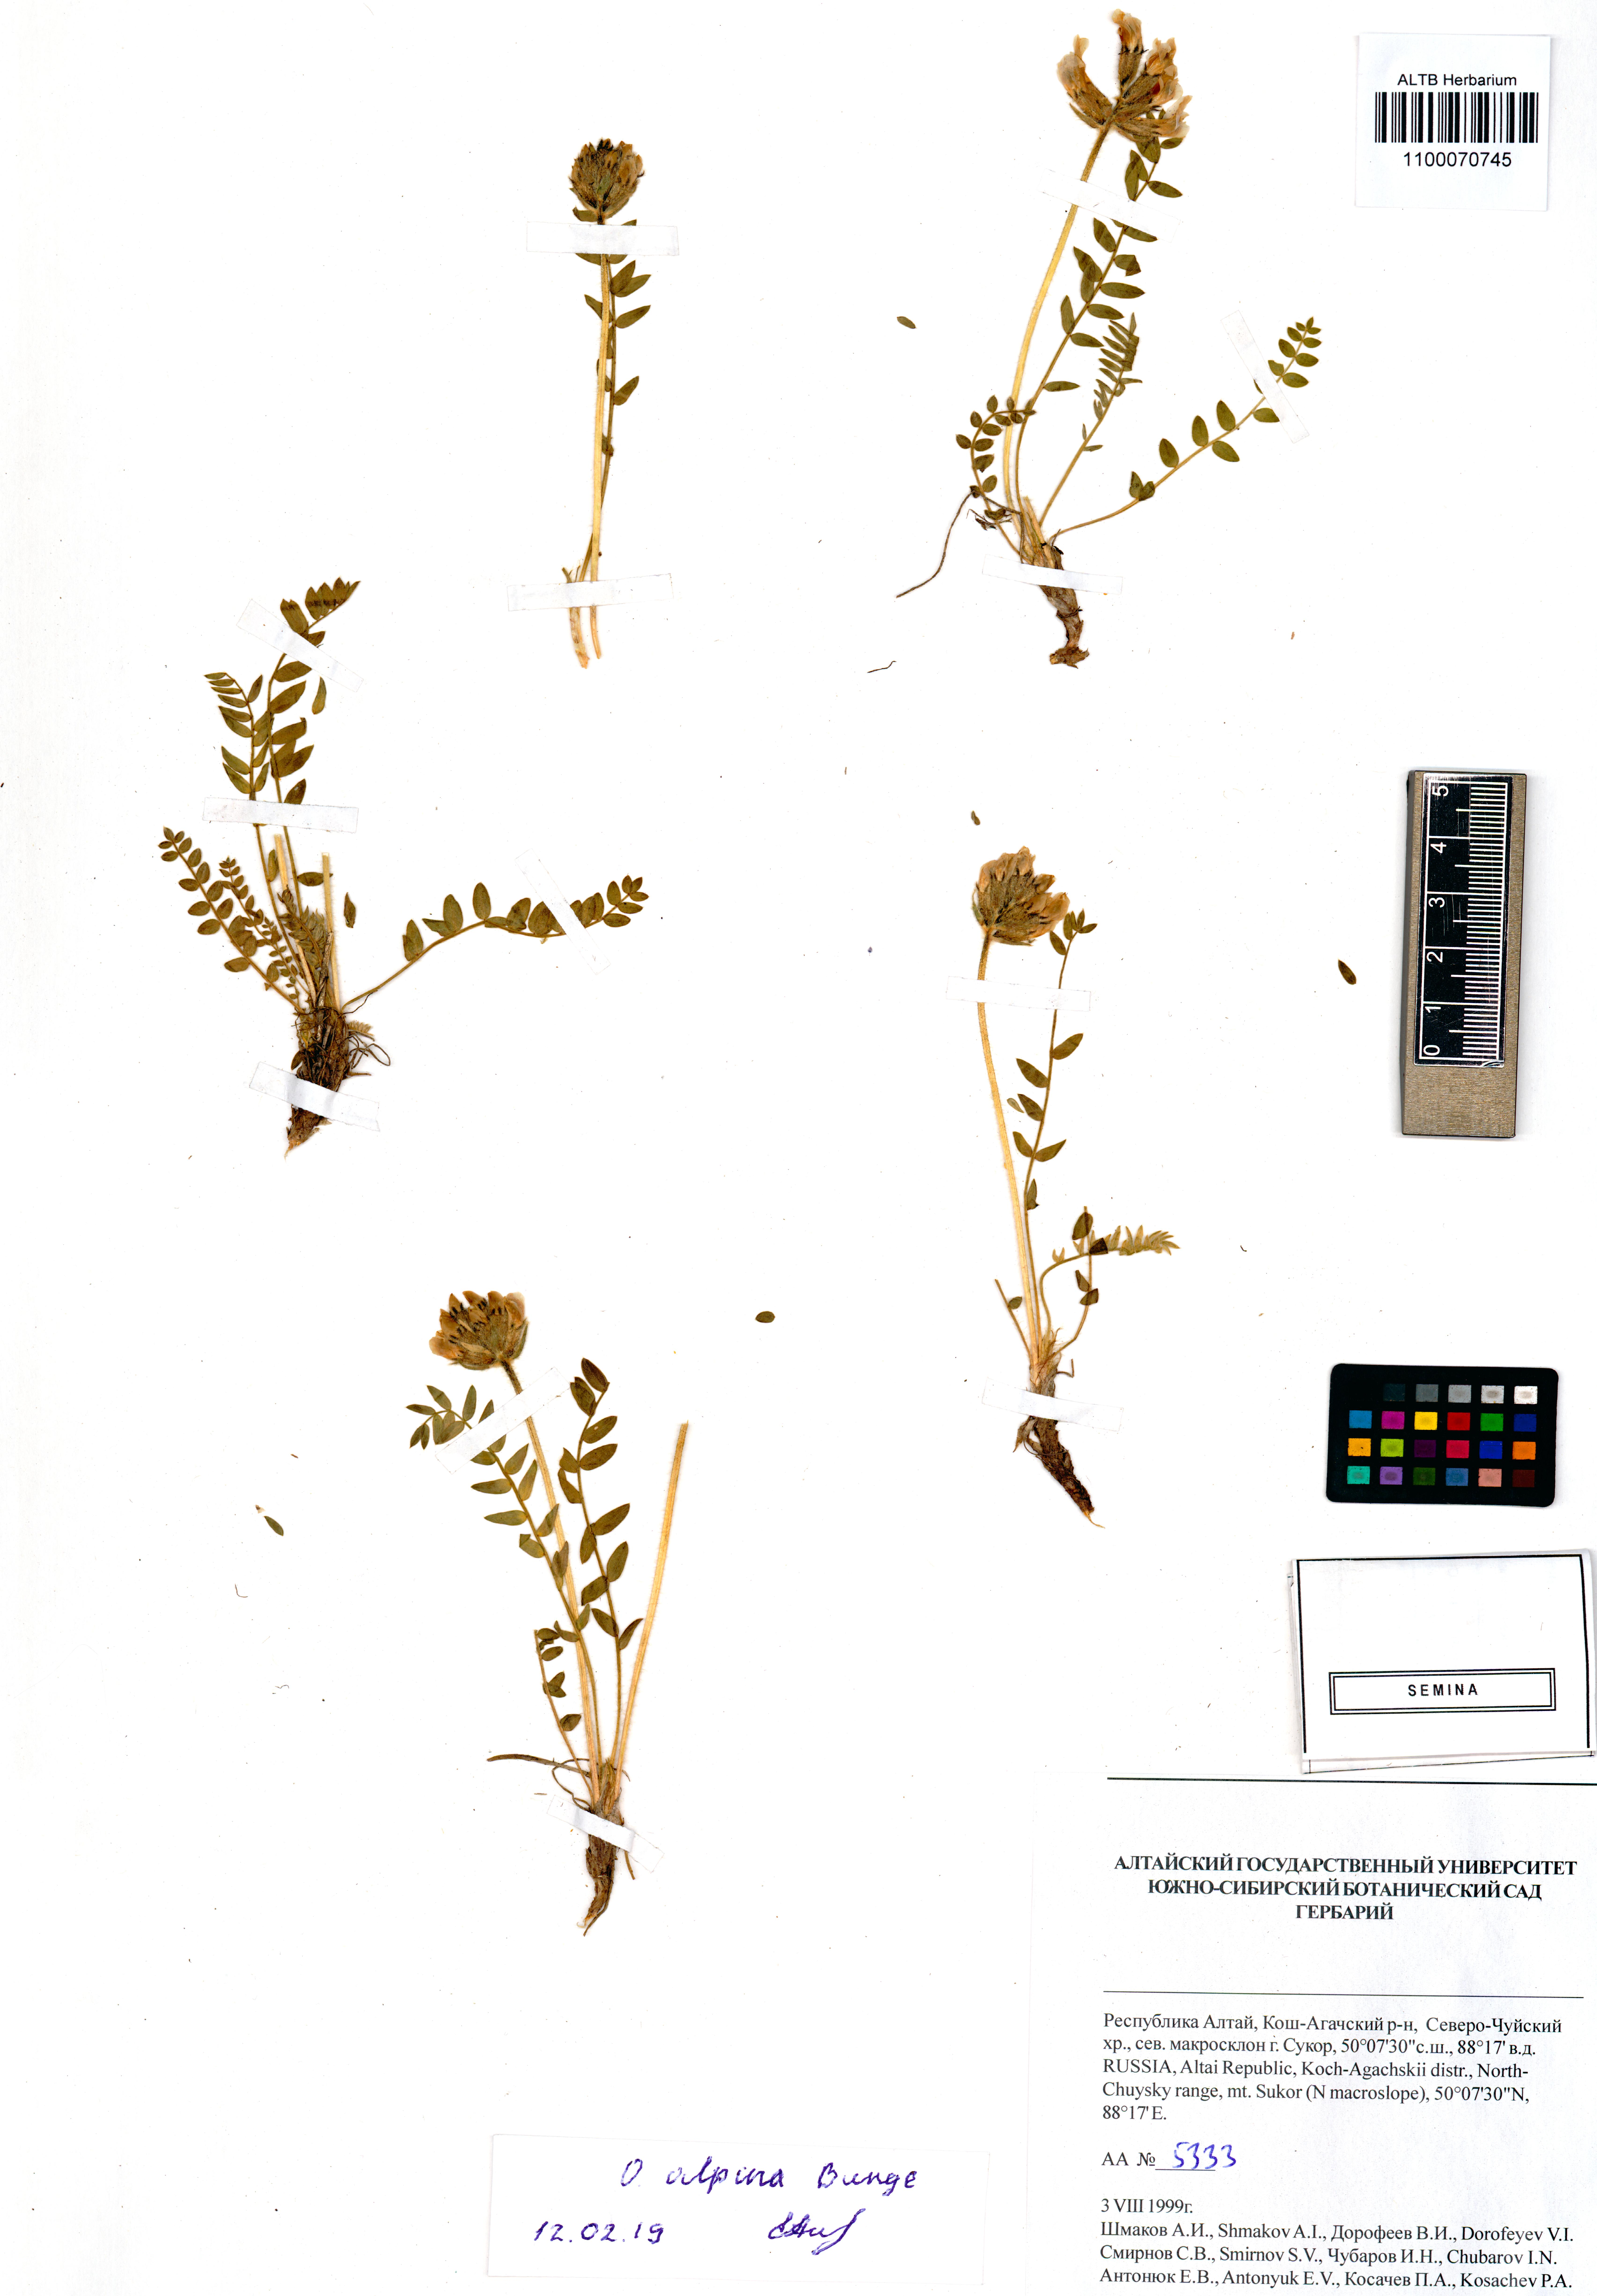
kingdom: Plantae
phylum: Tracheophyta
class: Magnoliopsida
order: Fabales
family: Fabaceae
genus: Oxytropis
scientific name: Oxytropis alpina
